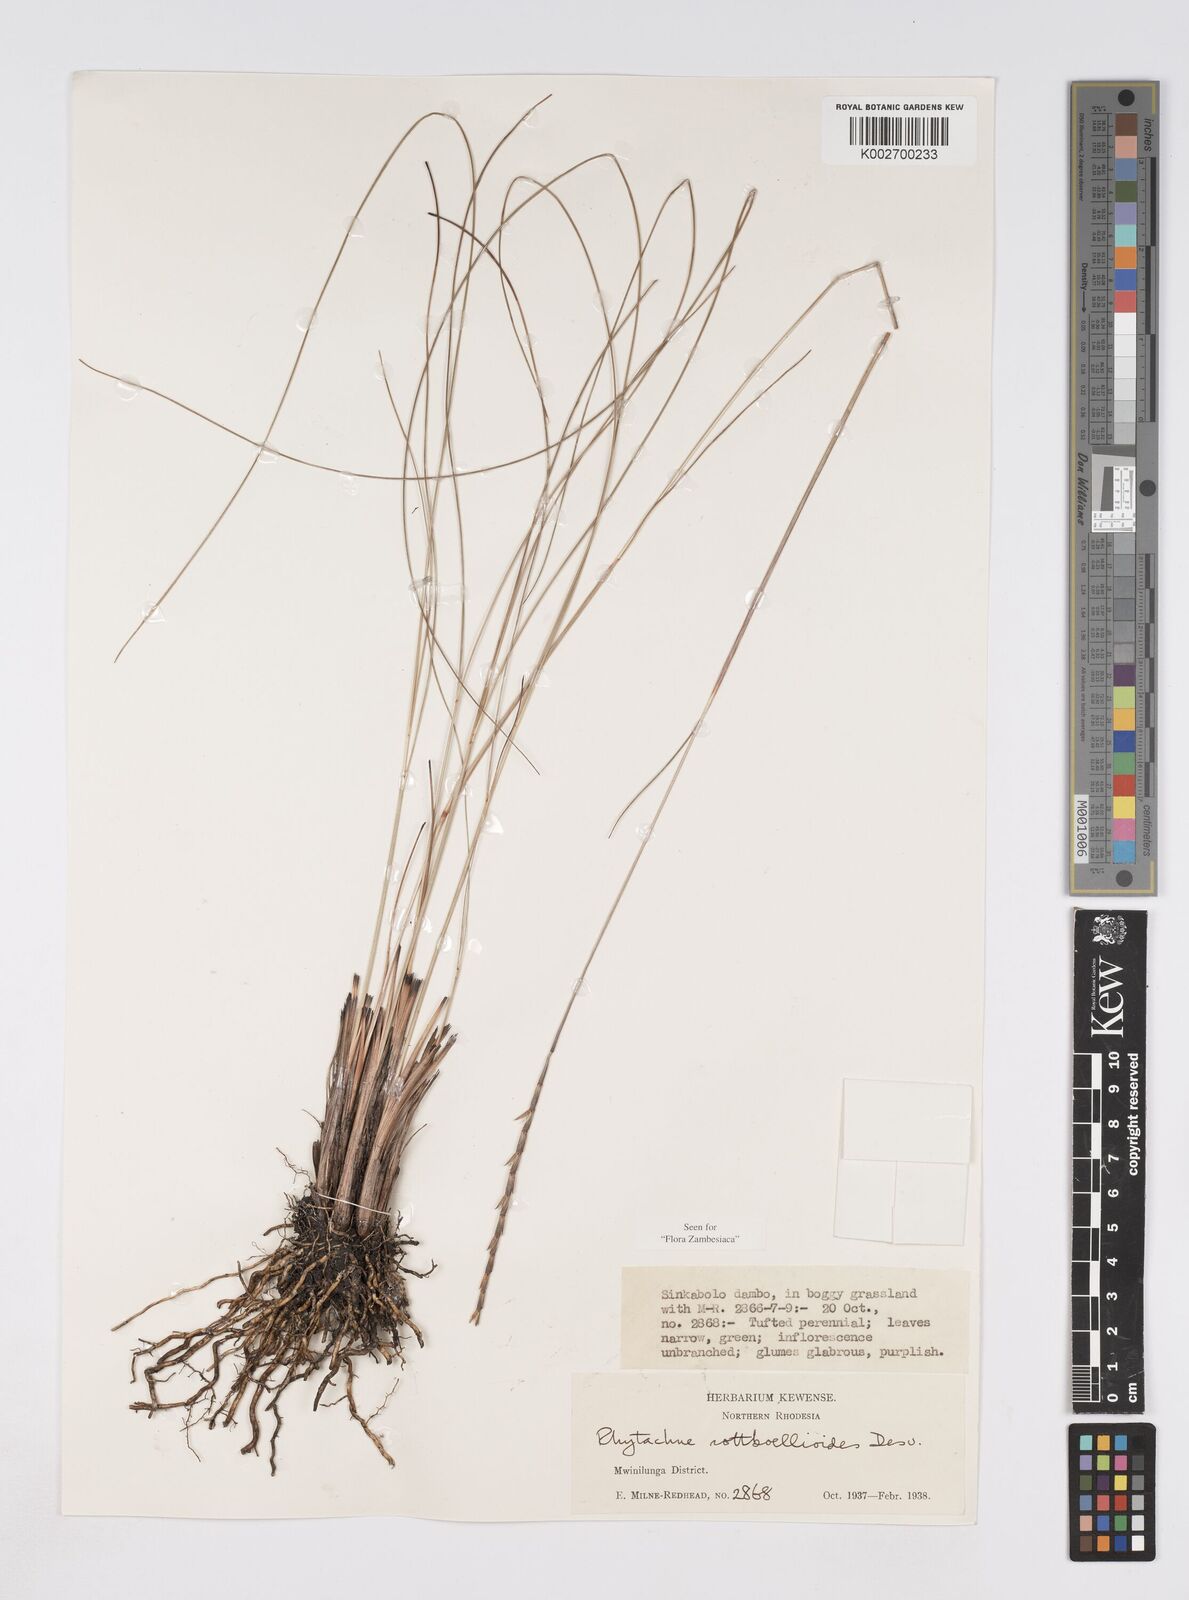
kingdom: Plantae
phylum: Tracheophyta
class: Liliopsida
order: Poales
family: Poaceae
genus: Rhytachne
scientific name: Rhytachne rottboellioides
